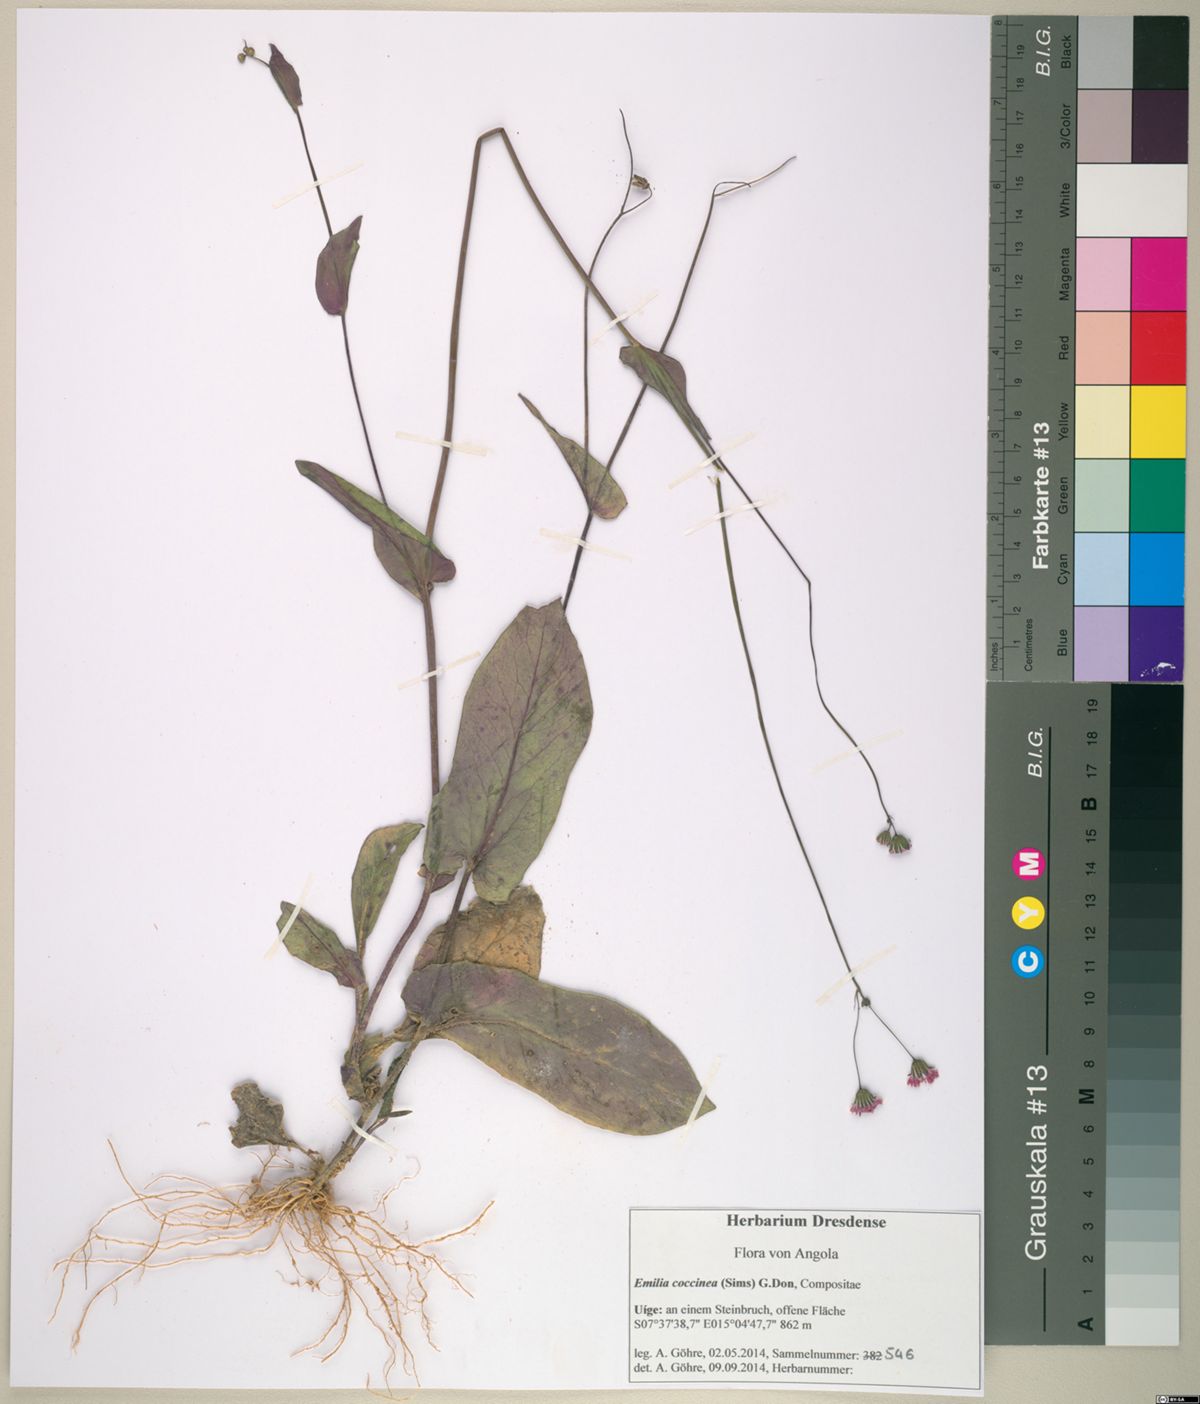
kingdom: Plantae
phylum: Tracheophyta
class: Magnoliopsida
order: Asterales
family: Asteraceae
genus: Emilia
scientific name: Emilia coccinea
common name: Scarlet tasselflower
